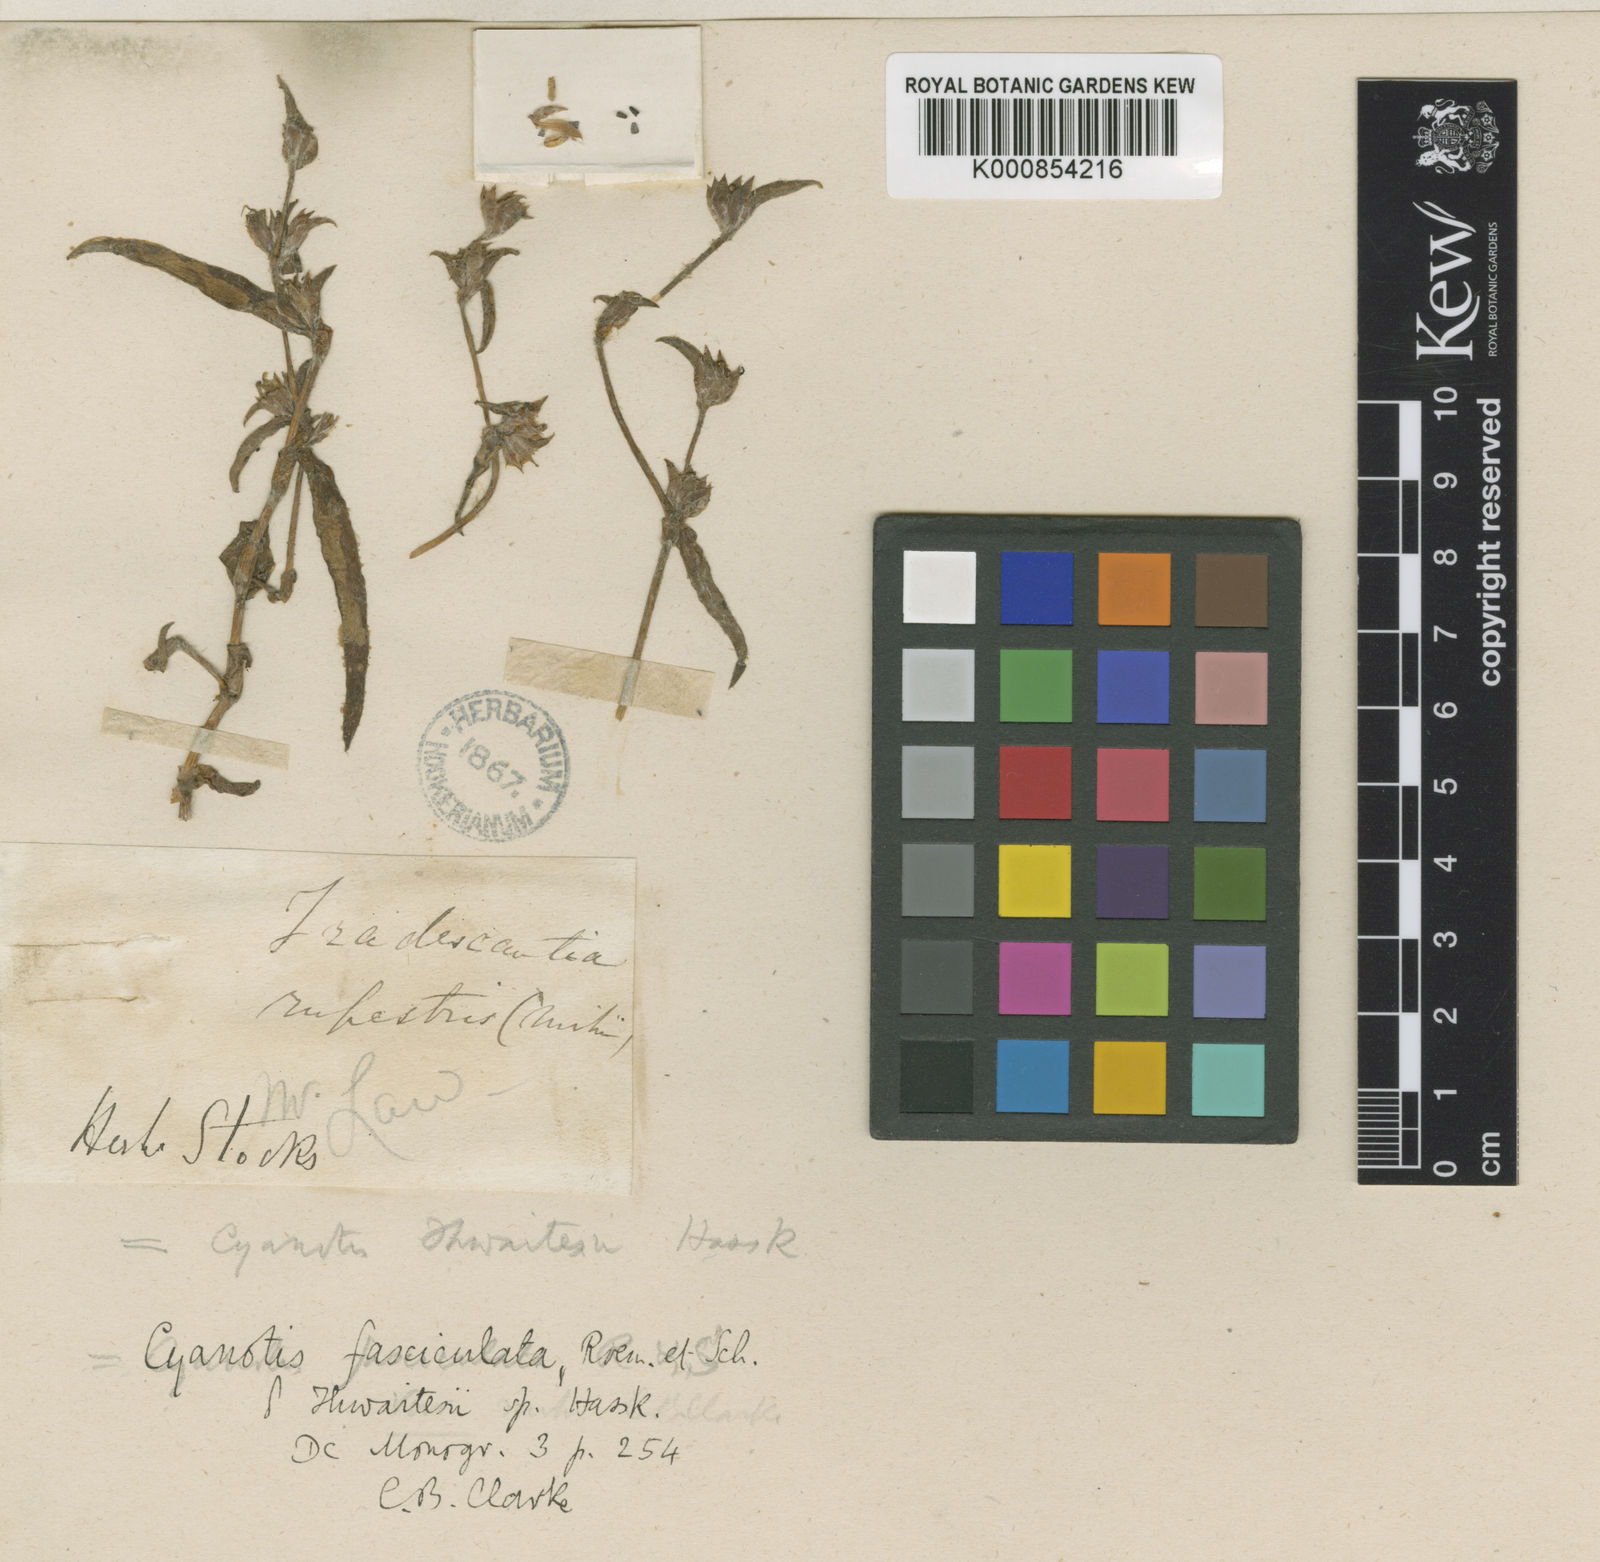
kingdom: Plantae
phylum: Tracheophyta
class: Liliopsida
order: Commelinales
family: Commelinaceae
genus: Cyanotis
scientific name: Cyanotis fasciculata
